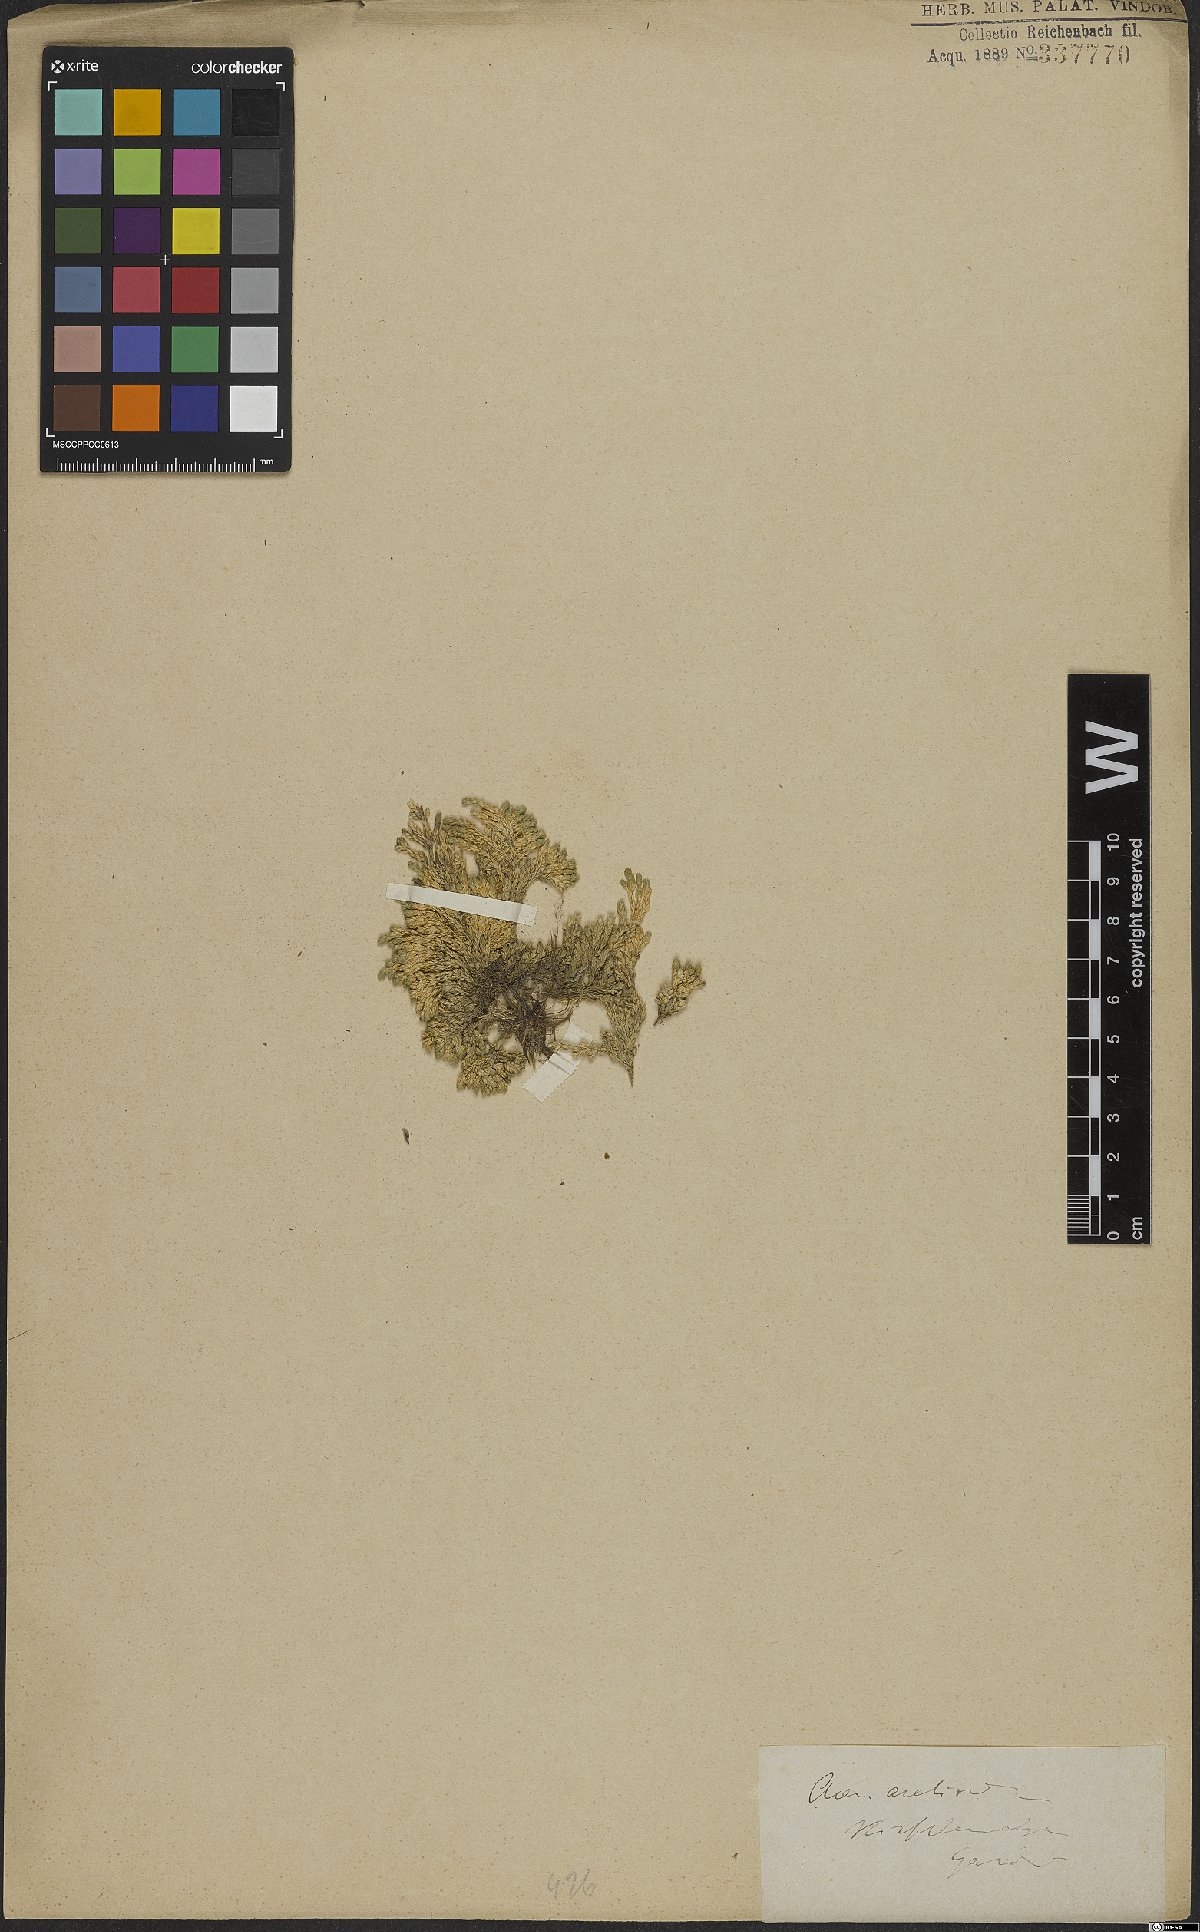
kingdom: Plantae
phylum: Tracheophyta
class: Magnoliopsida
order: Caryophyllales
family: Caryophyllaceae
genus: Facchinia
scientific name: Facchinia cherlerioides
